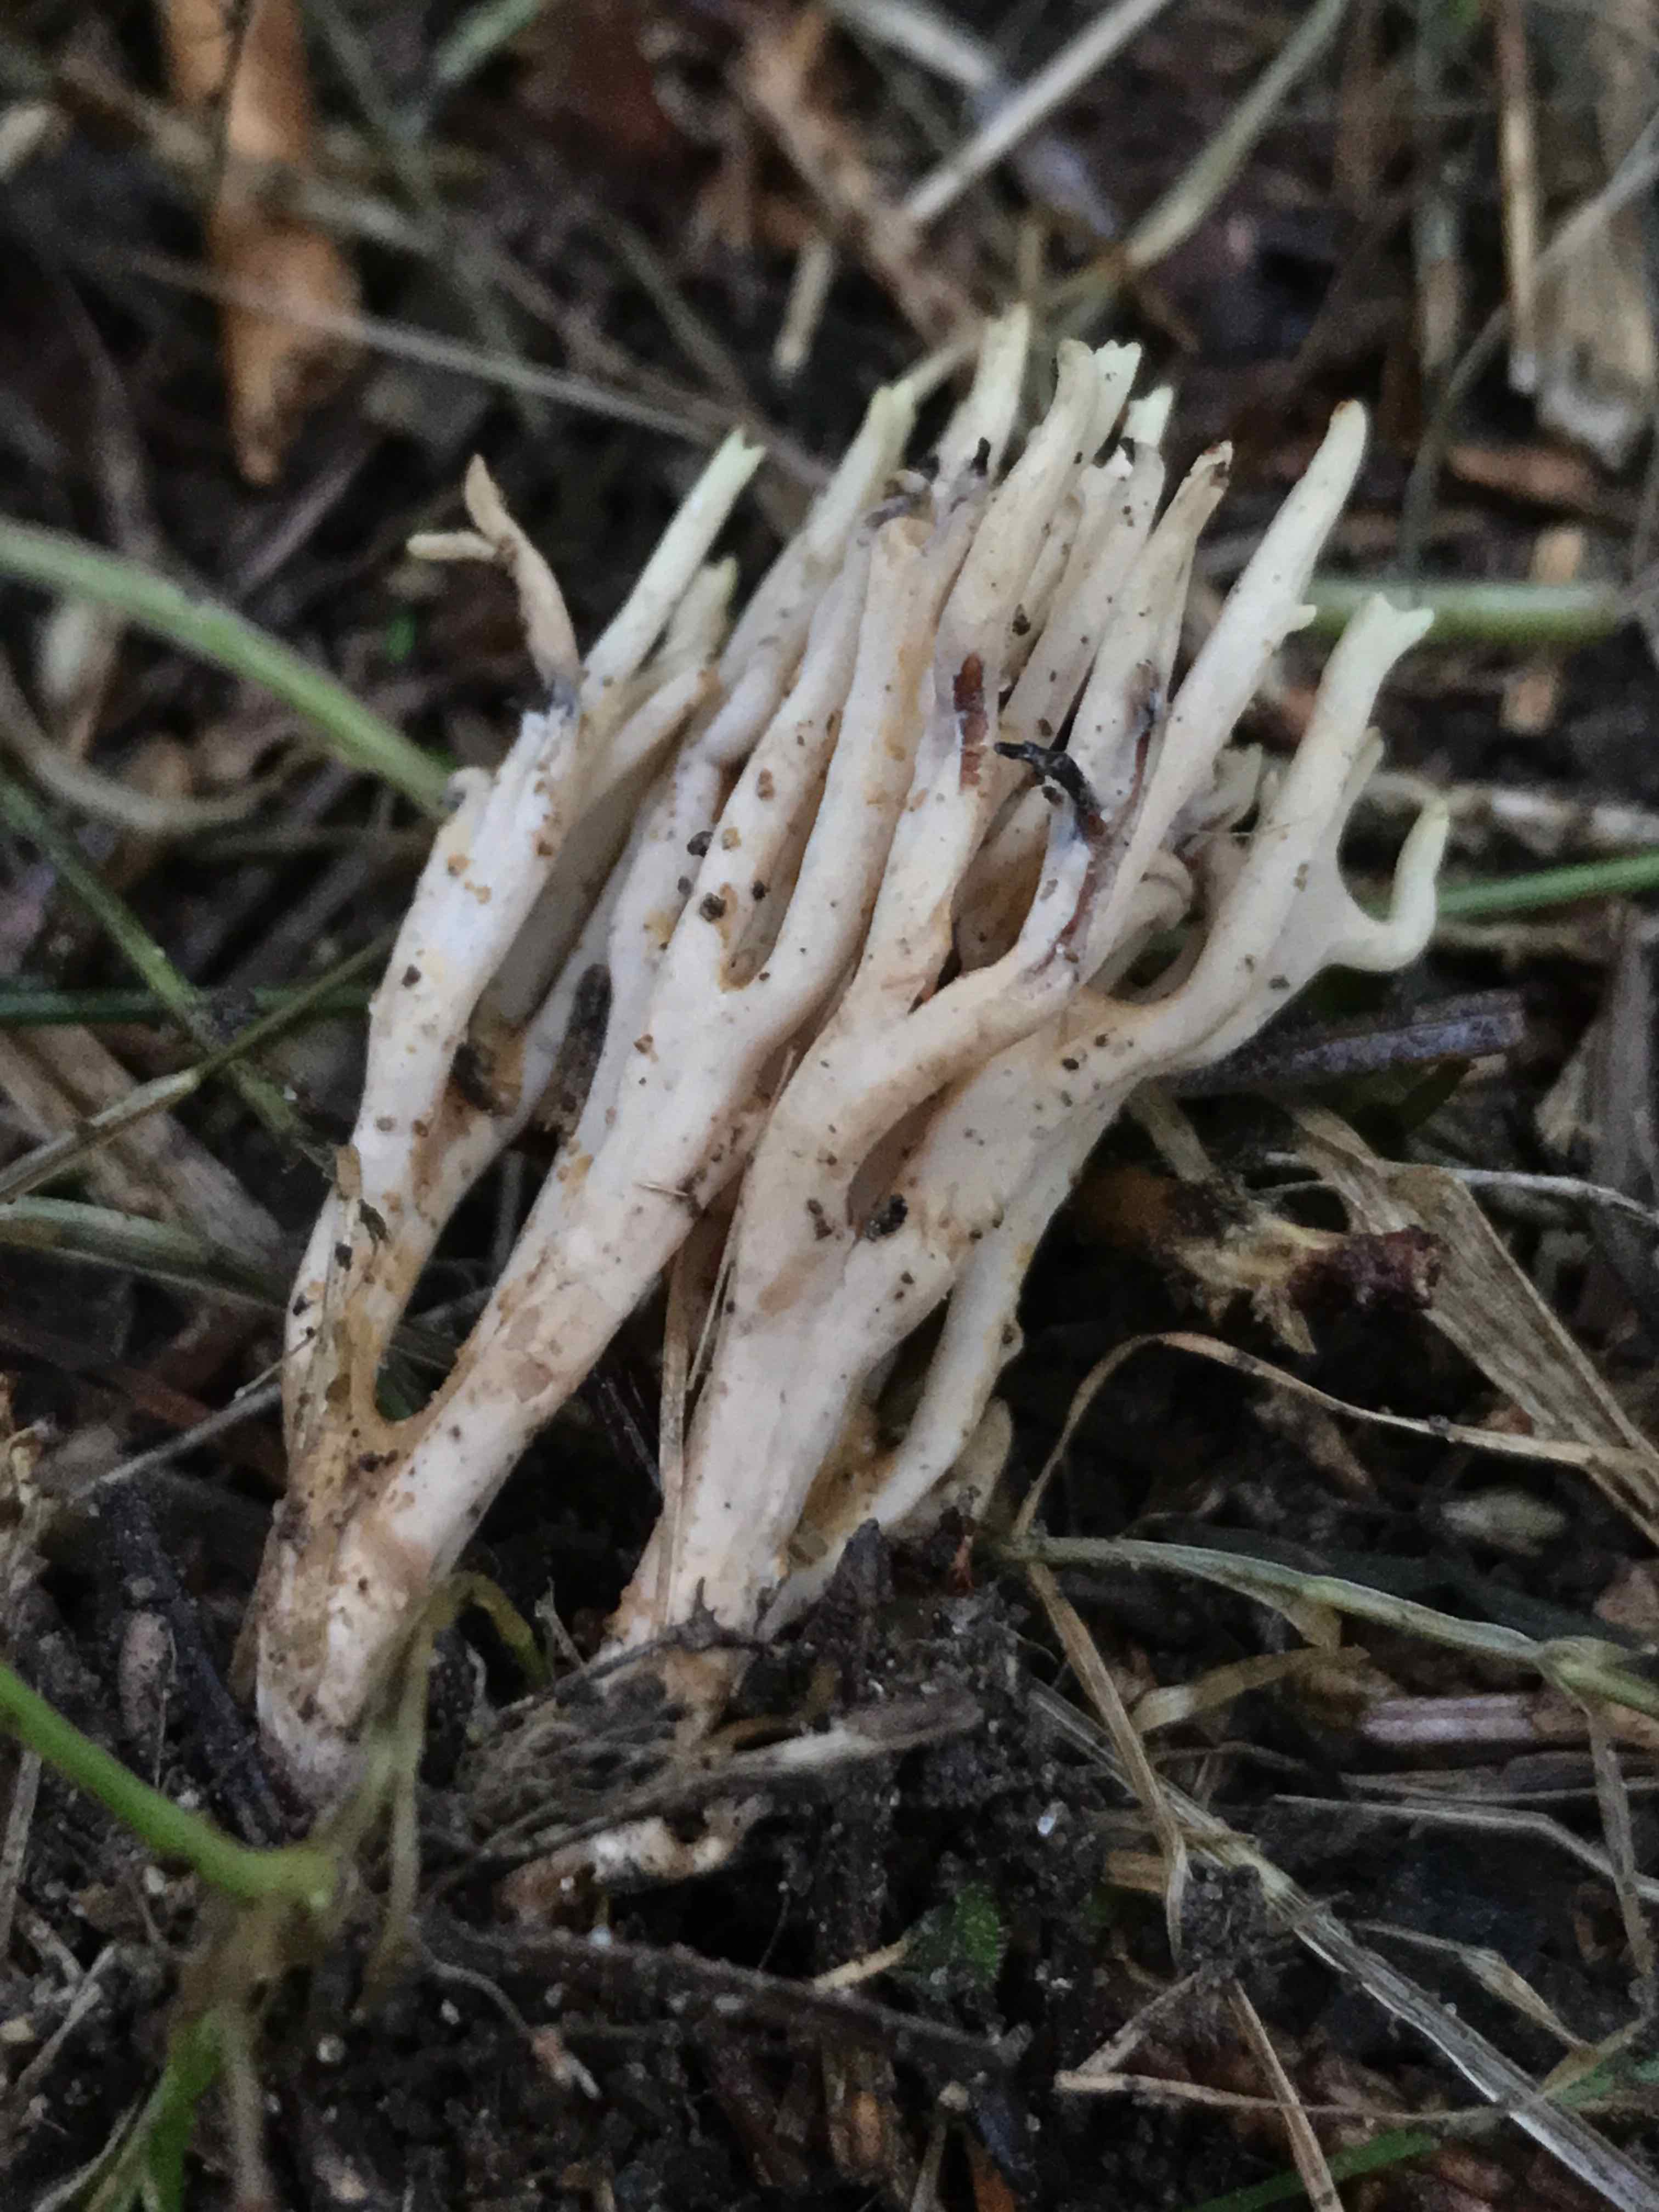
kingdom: Fungi
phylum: Basidiomycota
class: Agaricomycetes
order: Gomphales
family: Gomphaceae
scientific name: Gomphaceae
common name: køllekantarelfamilien
